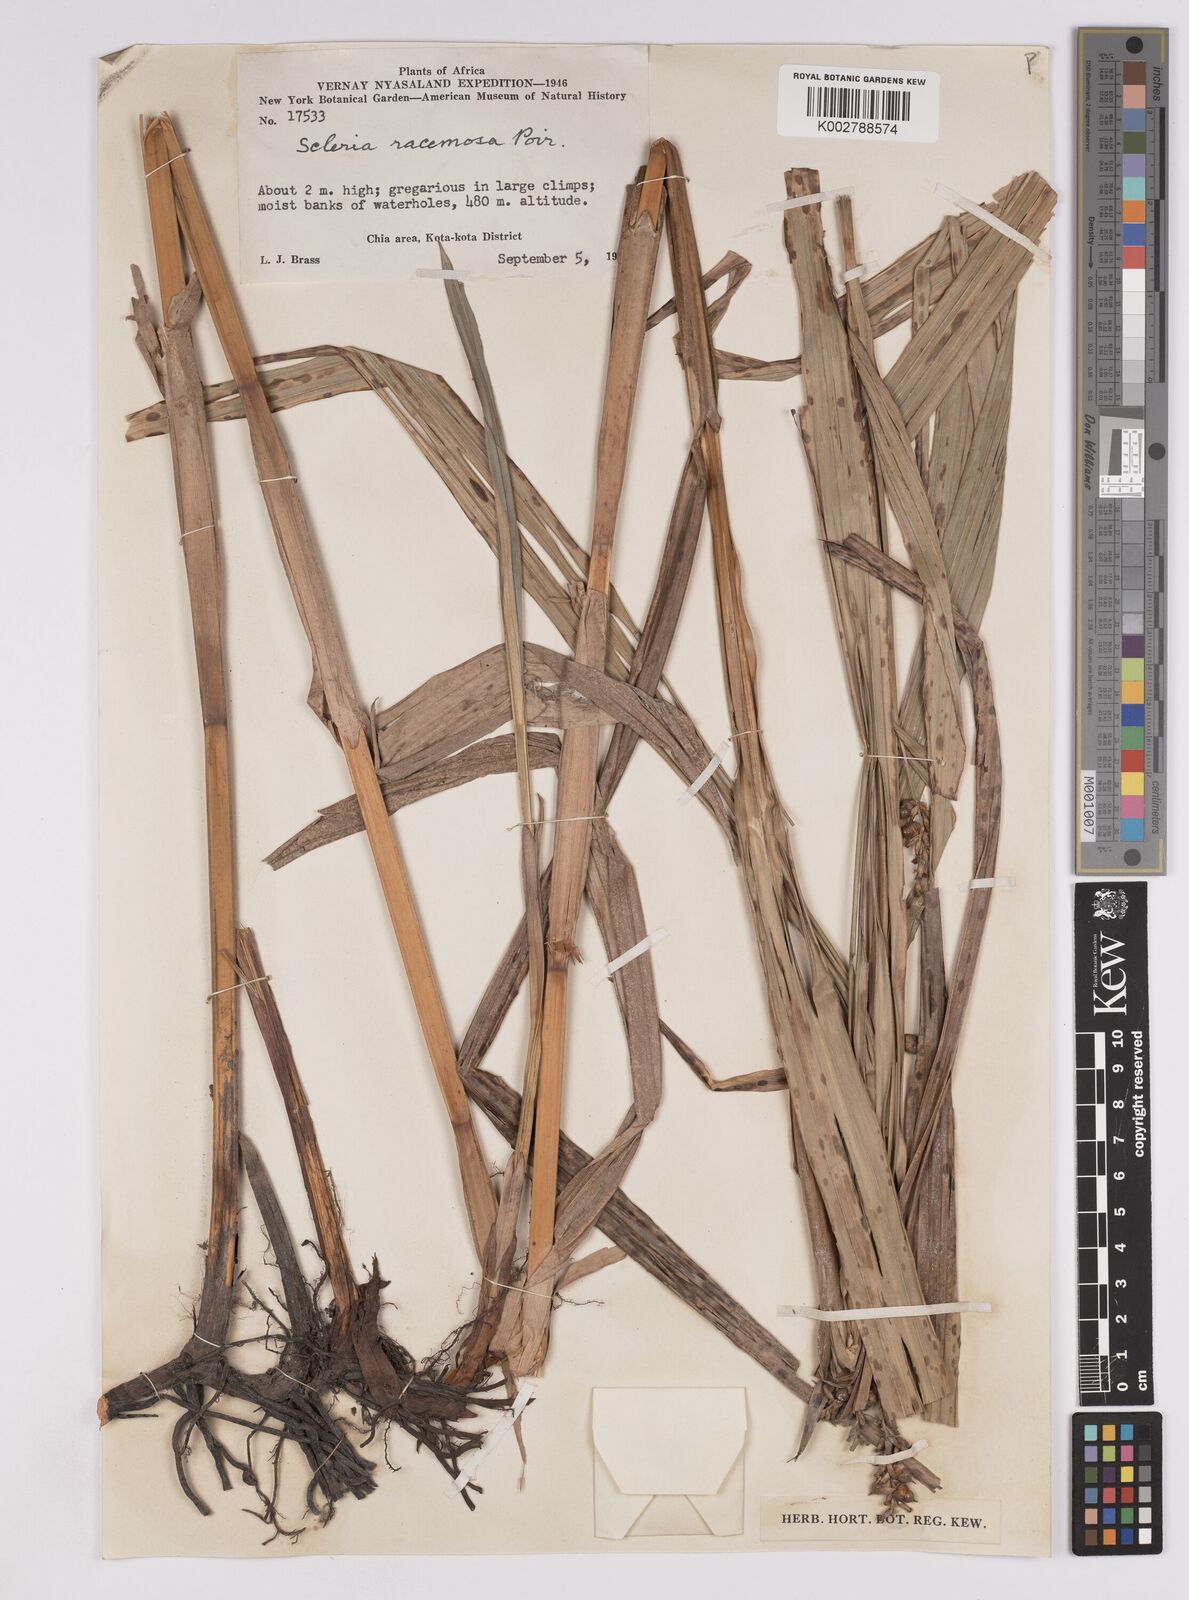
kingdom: Plantae
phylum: Tracheophyta
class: Liliopsida
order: Poales
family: Cyperaceae
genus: Scleria
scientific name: Scleria racemosa
